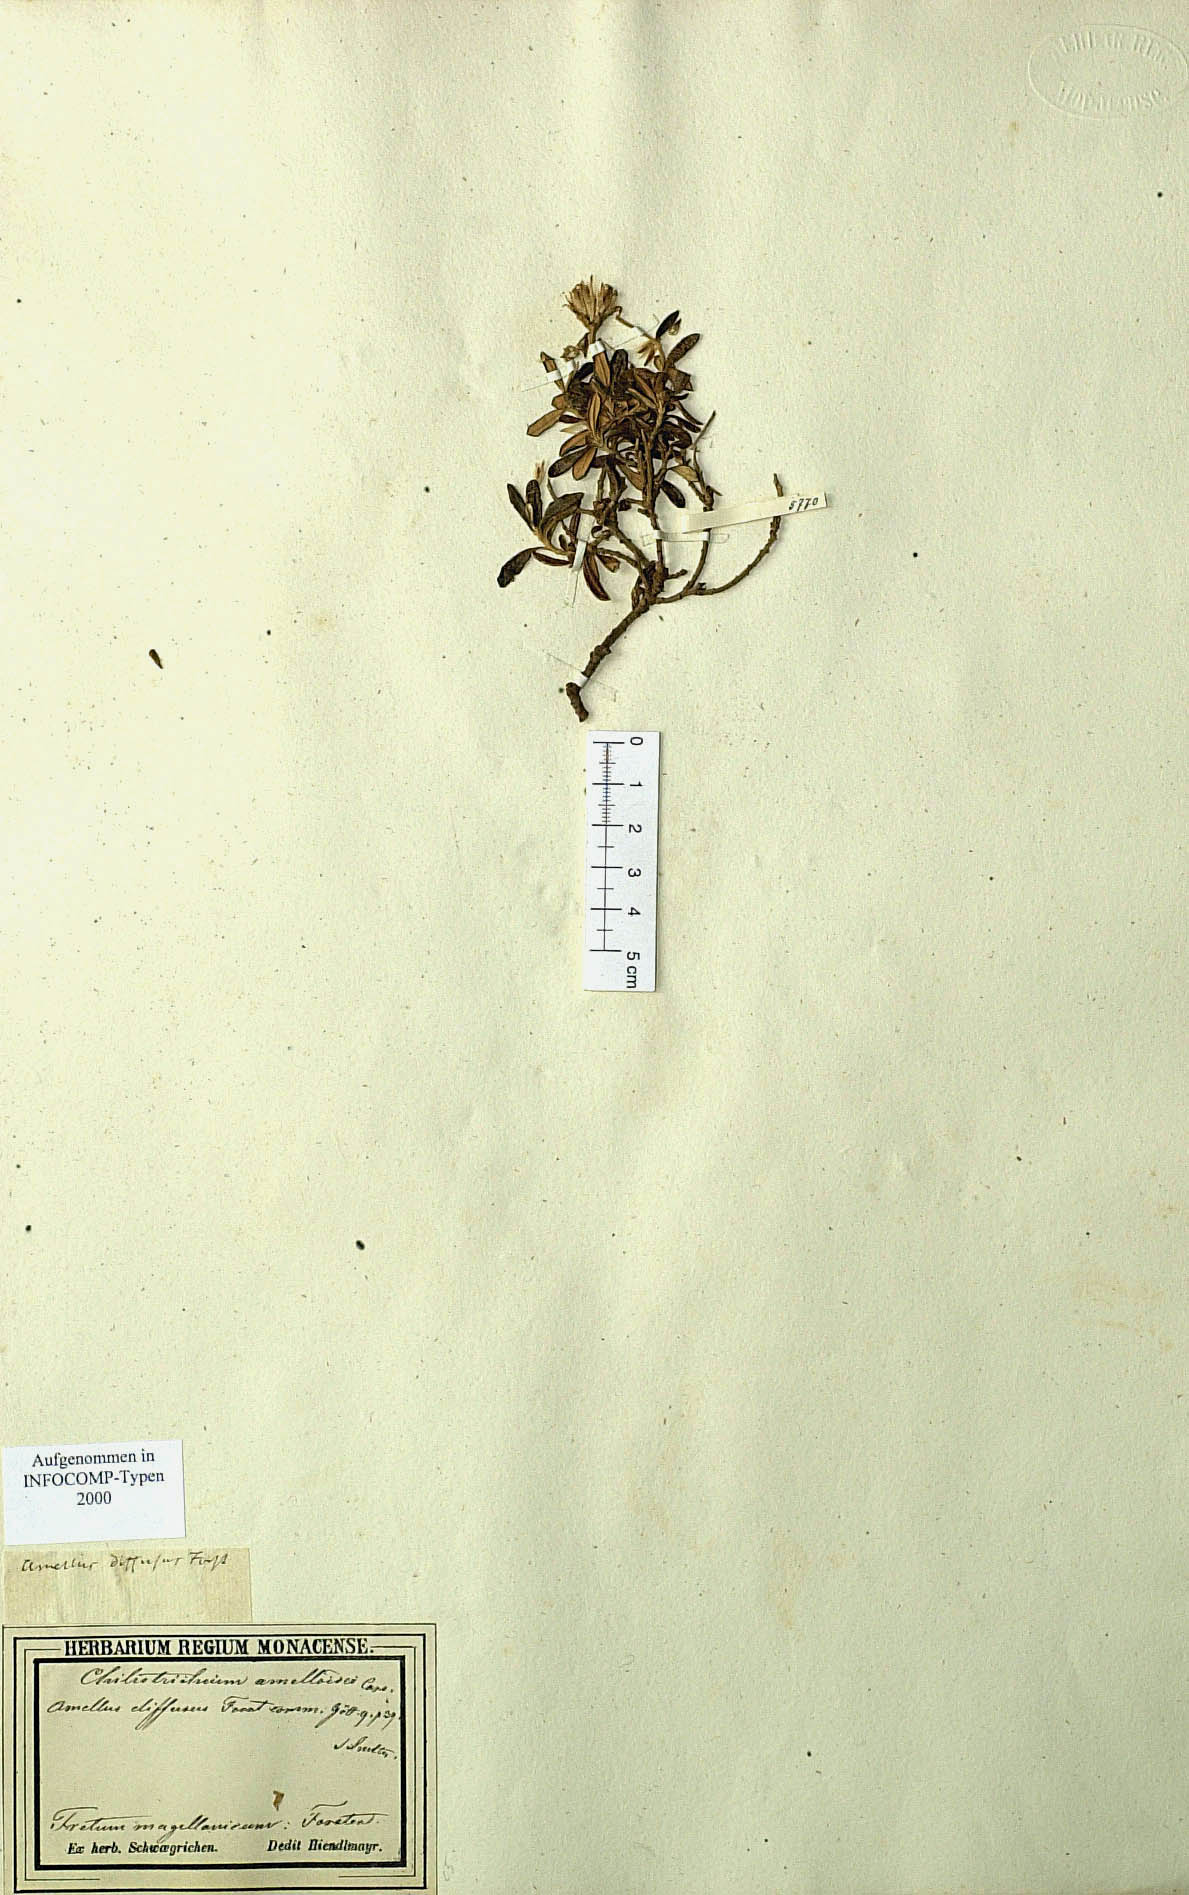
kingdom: Plantae
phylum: Tracheophyta
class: Magnoliopsida
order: Asterales
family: Asteraceae
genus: Chiliotrichum
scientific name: Chiliotrichum diffusum
